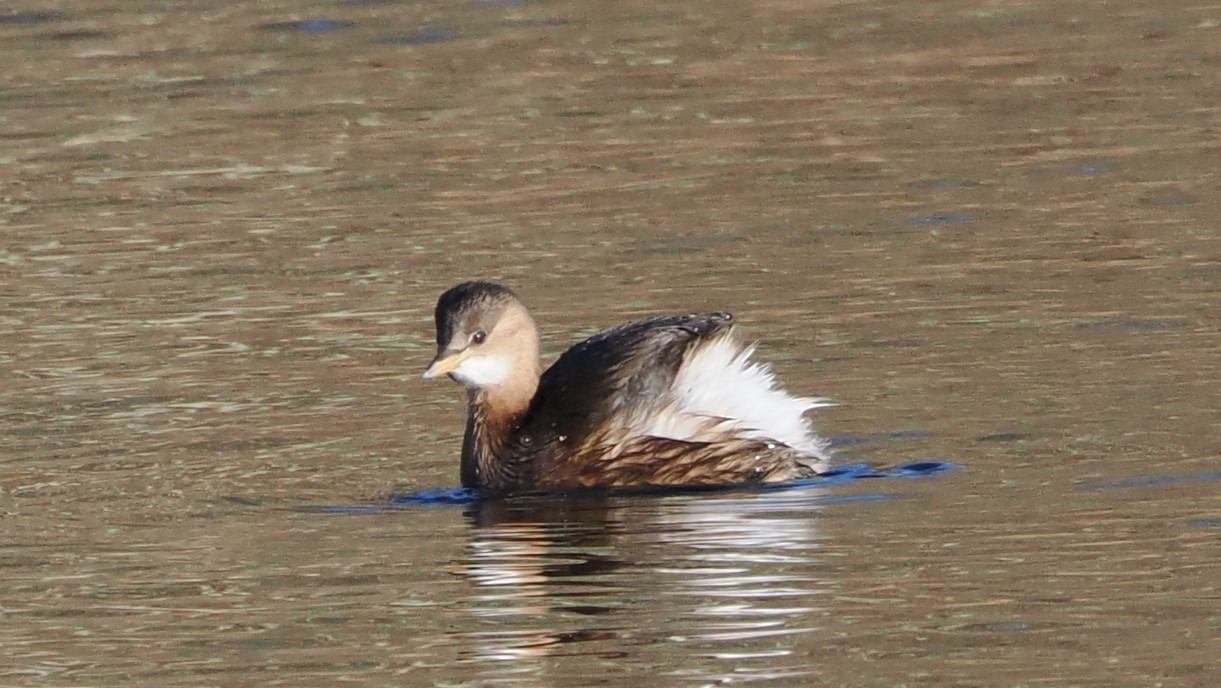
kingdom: Animalia
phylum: Chordata
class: Aves
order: Podicipediformes
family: Podicipedidae
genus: Tachybaptus
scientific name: Tachybaptus ruficollis
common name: Lille lappedykker
